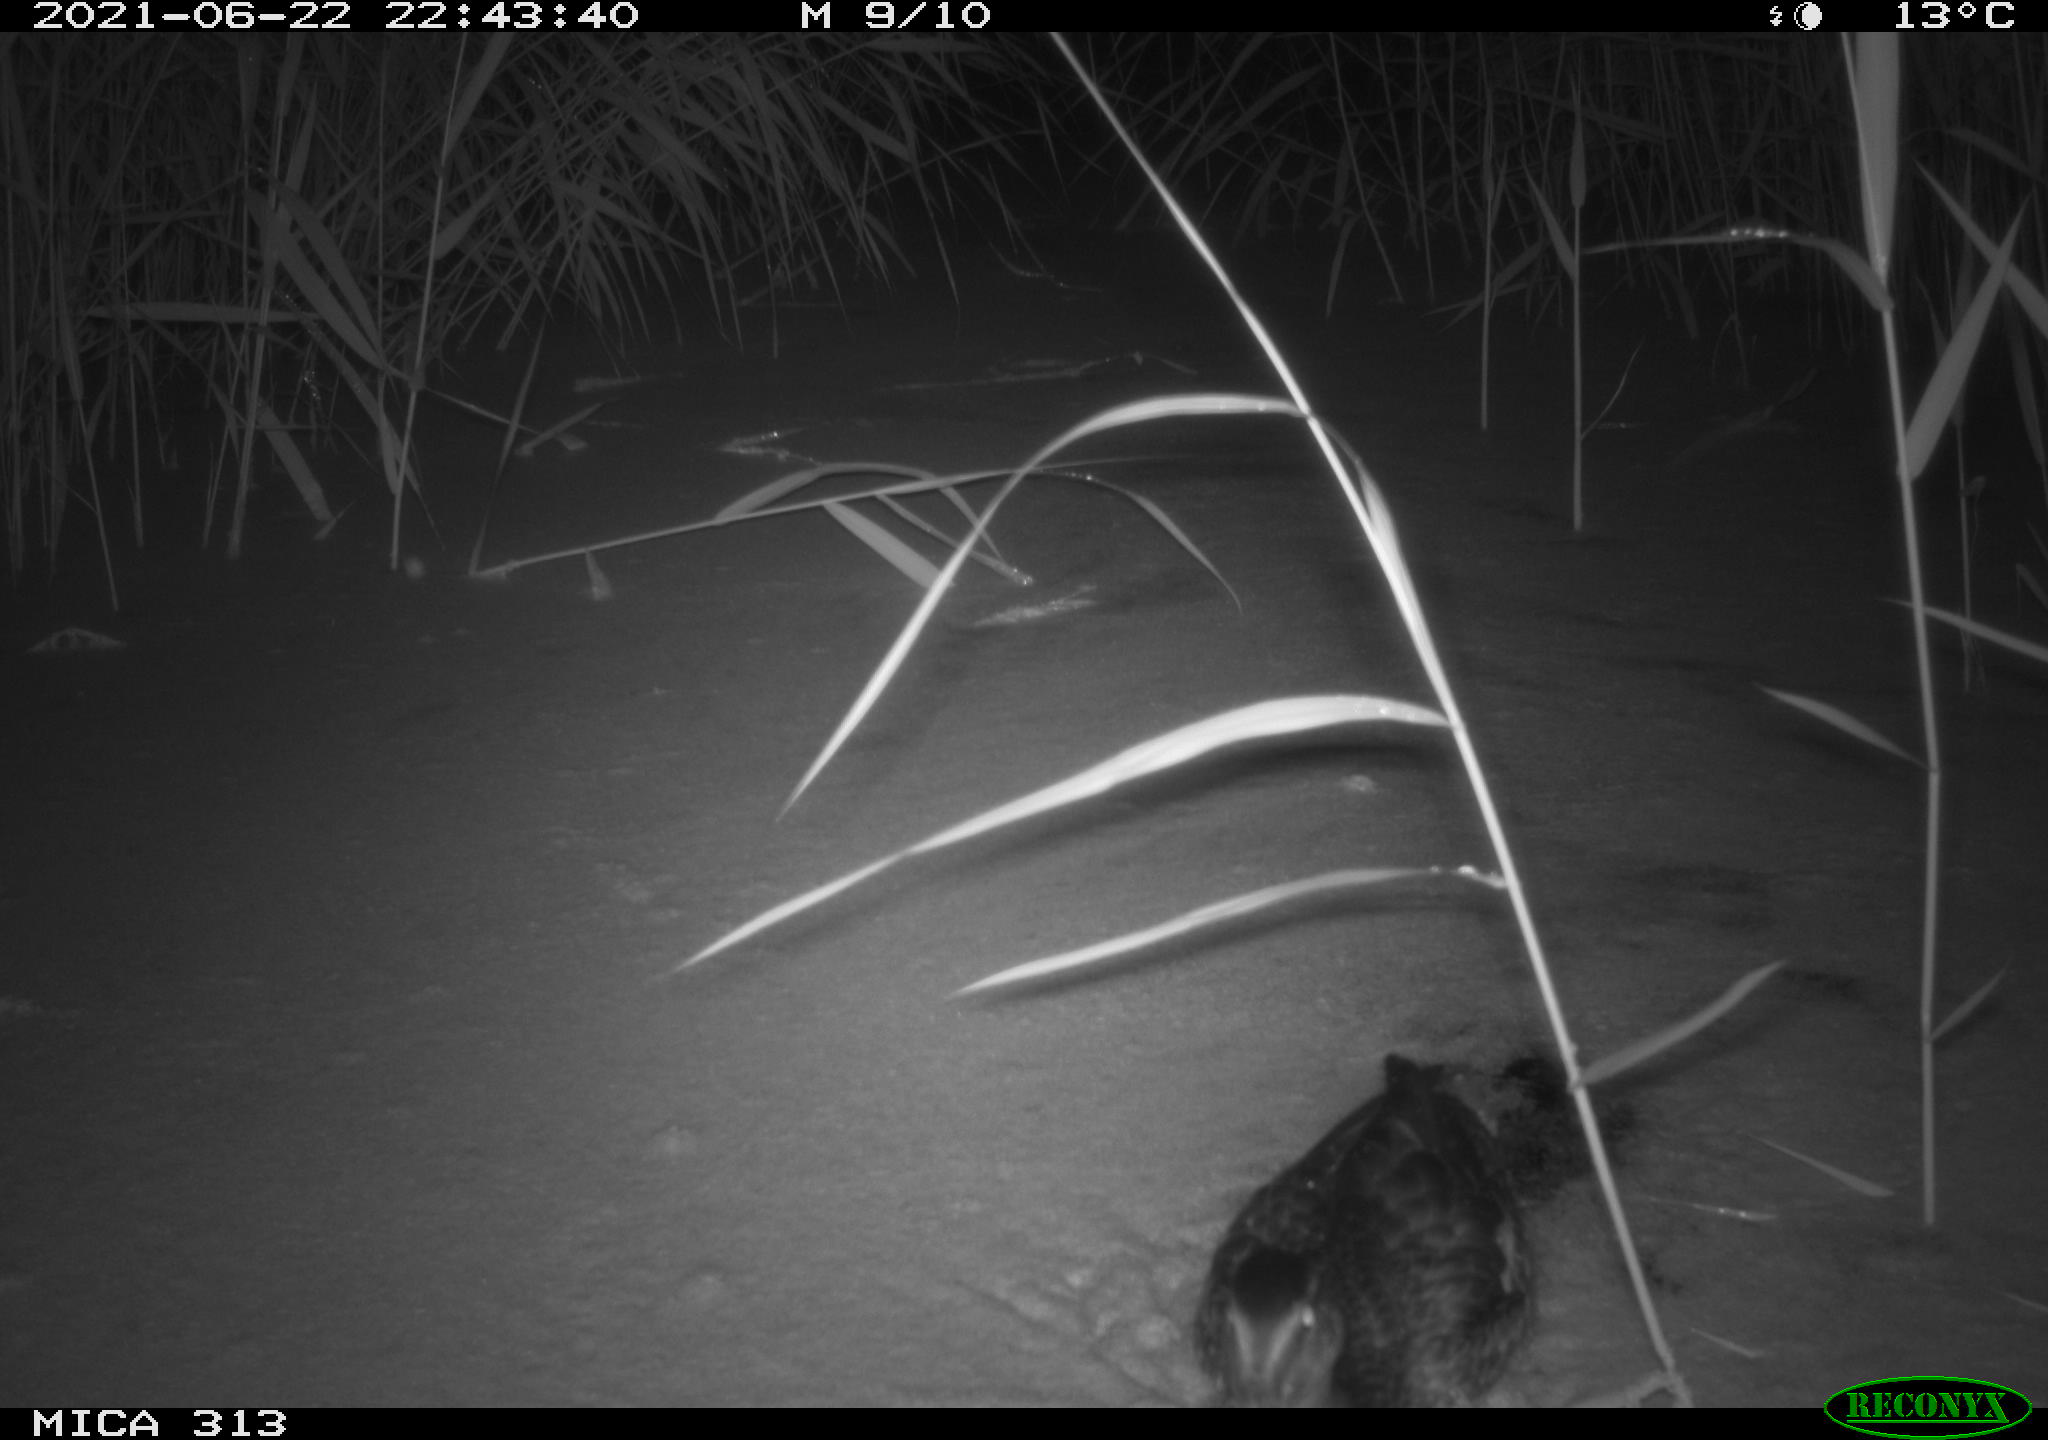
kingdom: Animalia
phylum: Chordata
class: Aves
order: Anseriformes
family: Anatidae
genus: Anas
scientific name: Anas
